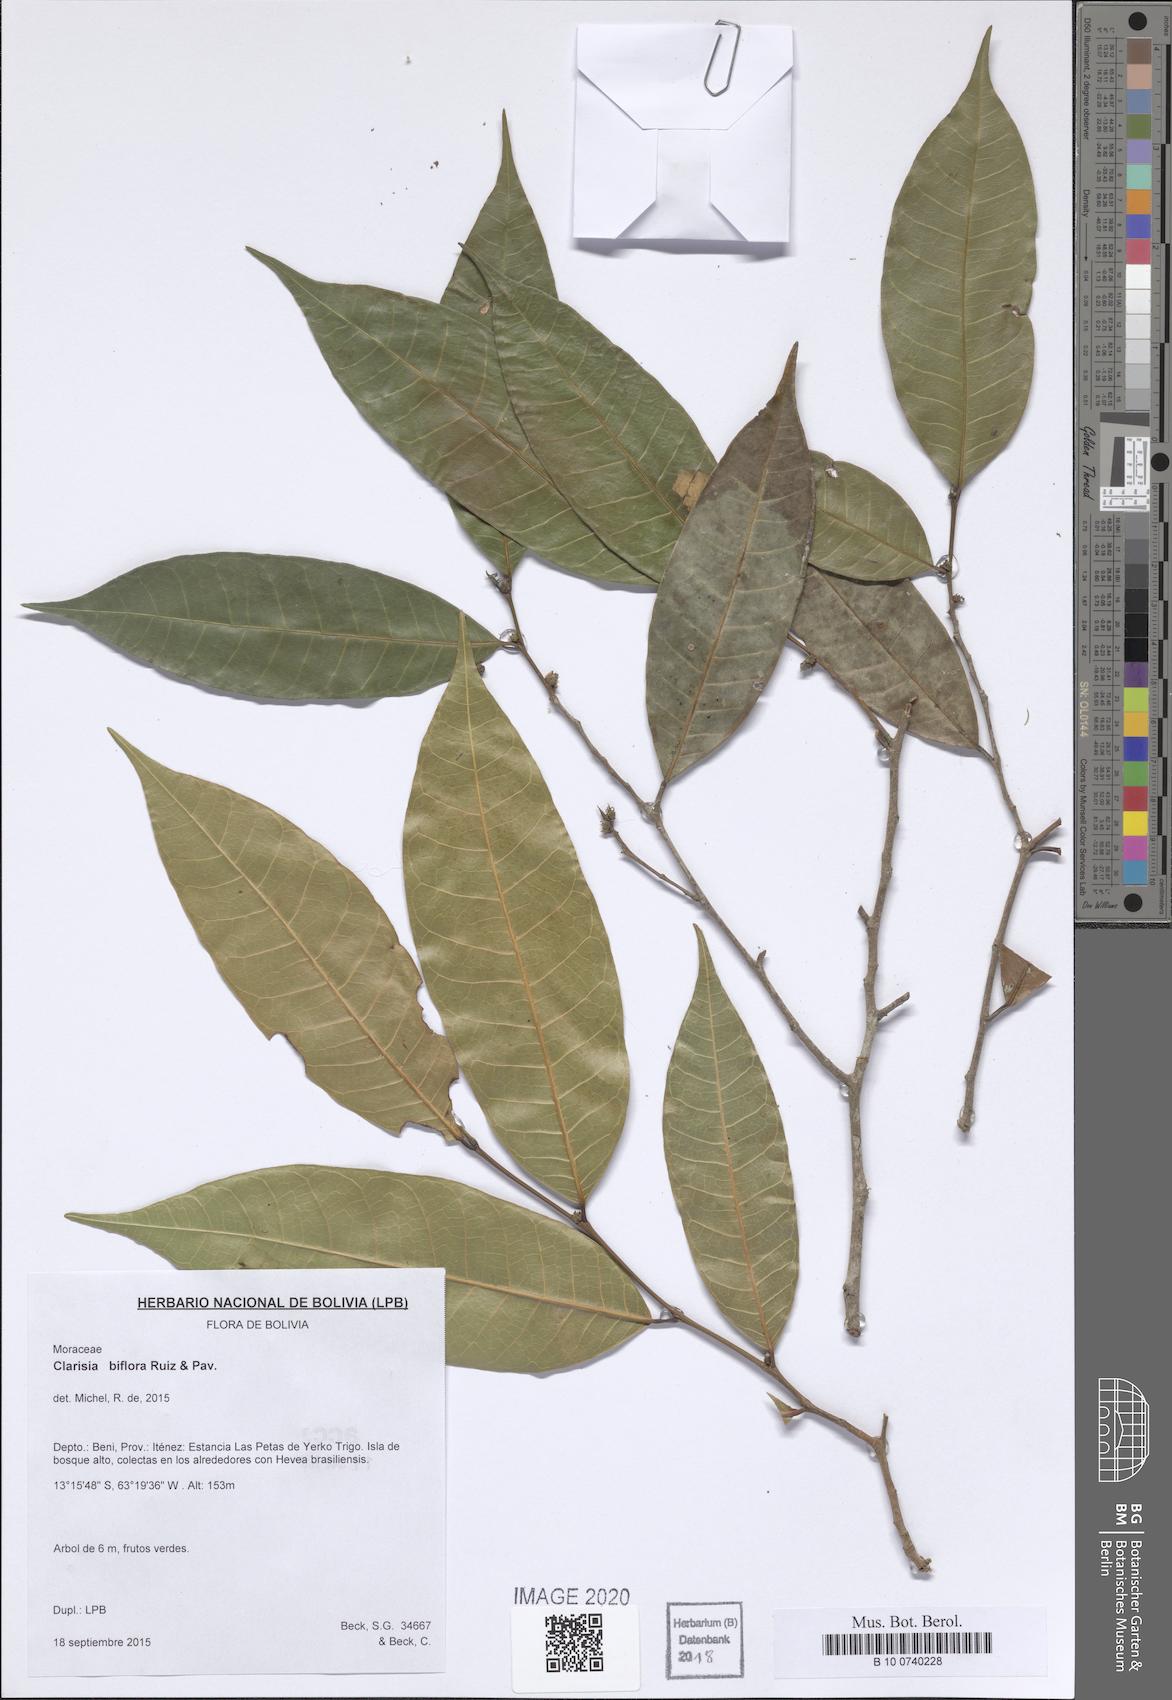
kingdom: Plantae
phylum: Tracheophyta
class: Magnoliopsida
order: Rosales
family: Moraceae
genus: Clarisia
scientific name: Clarisia biflora
